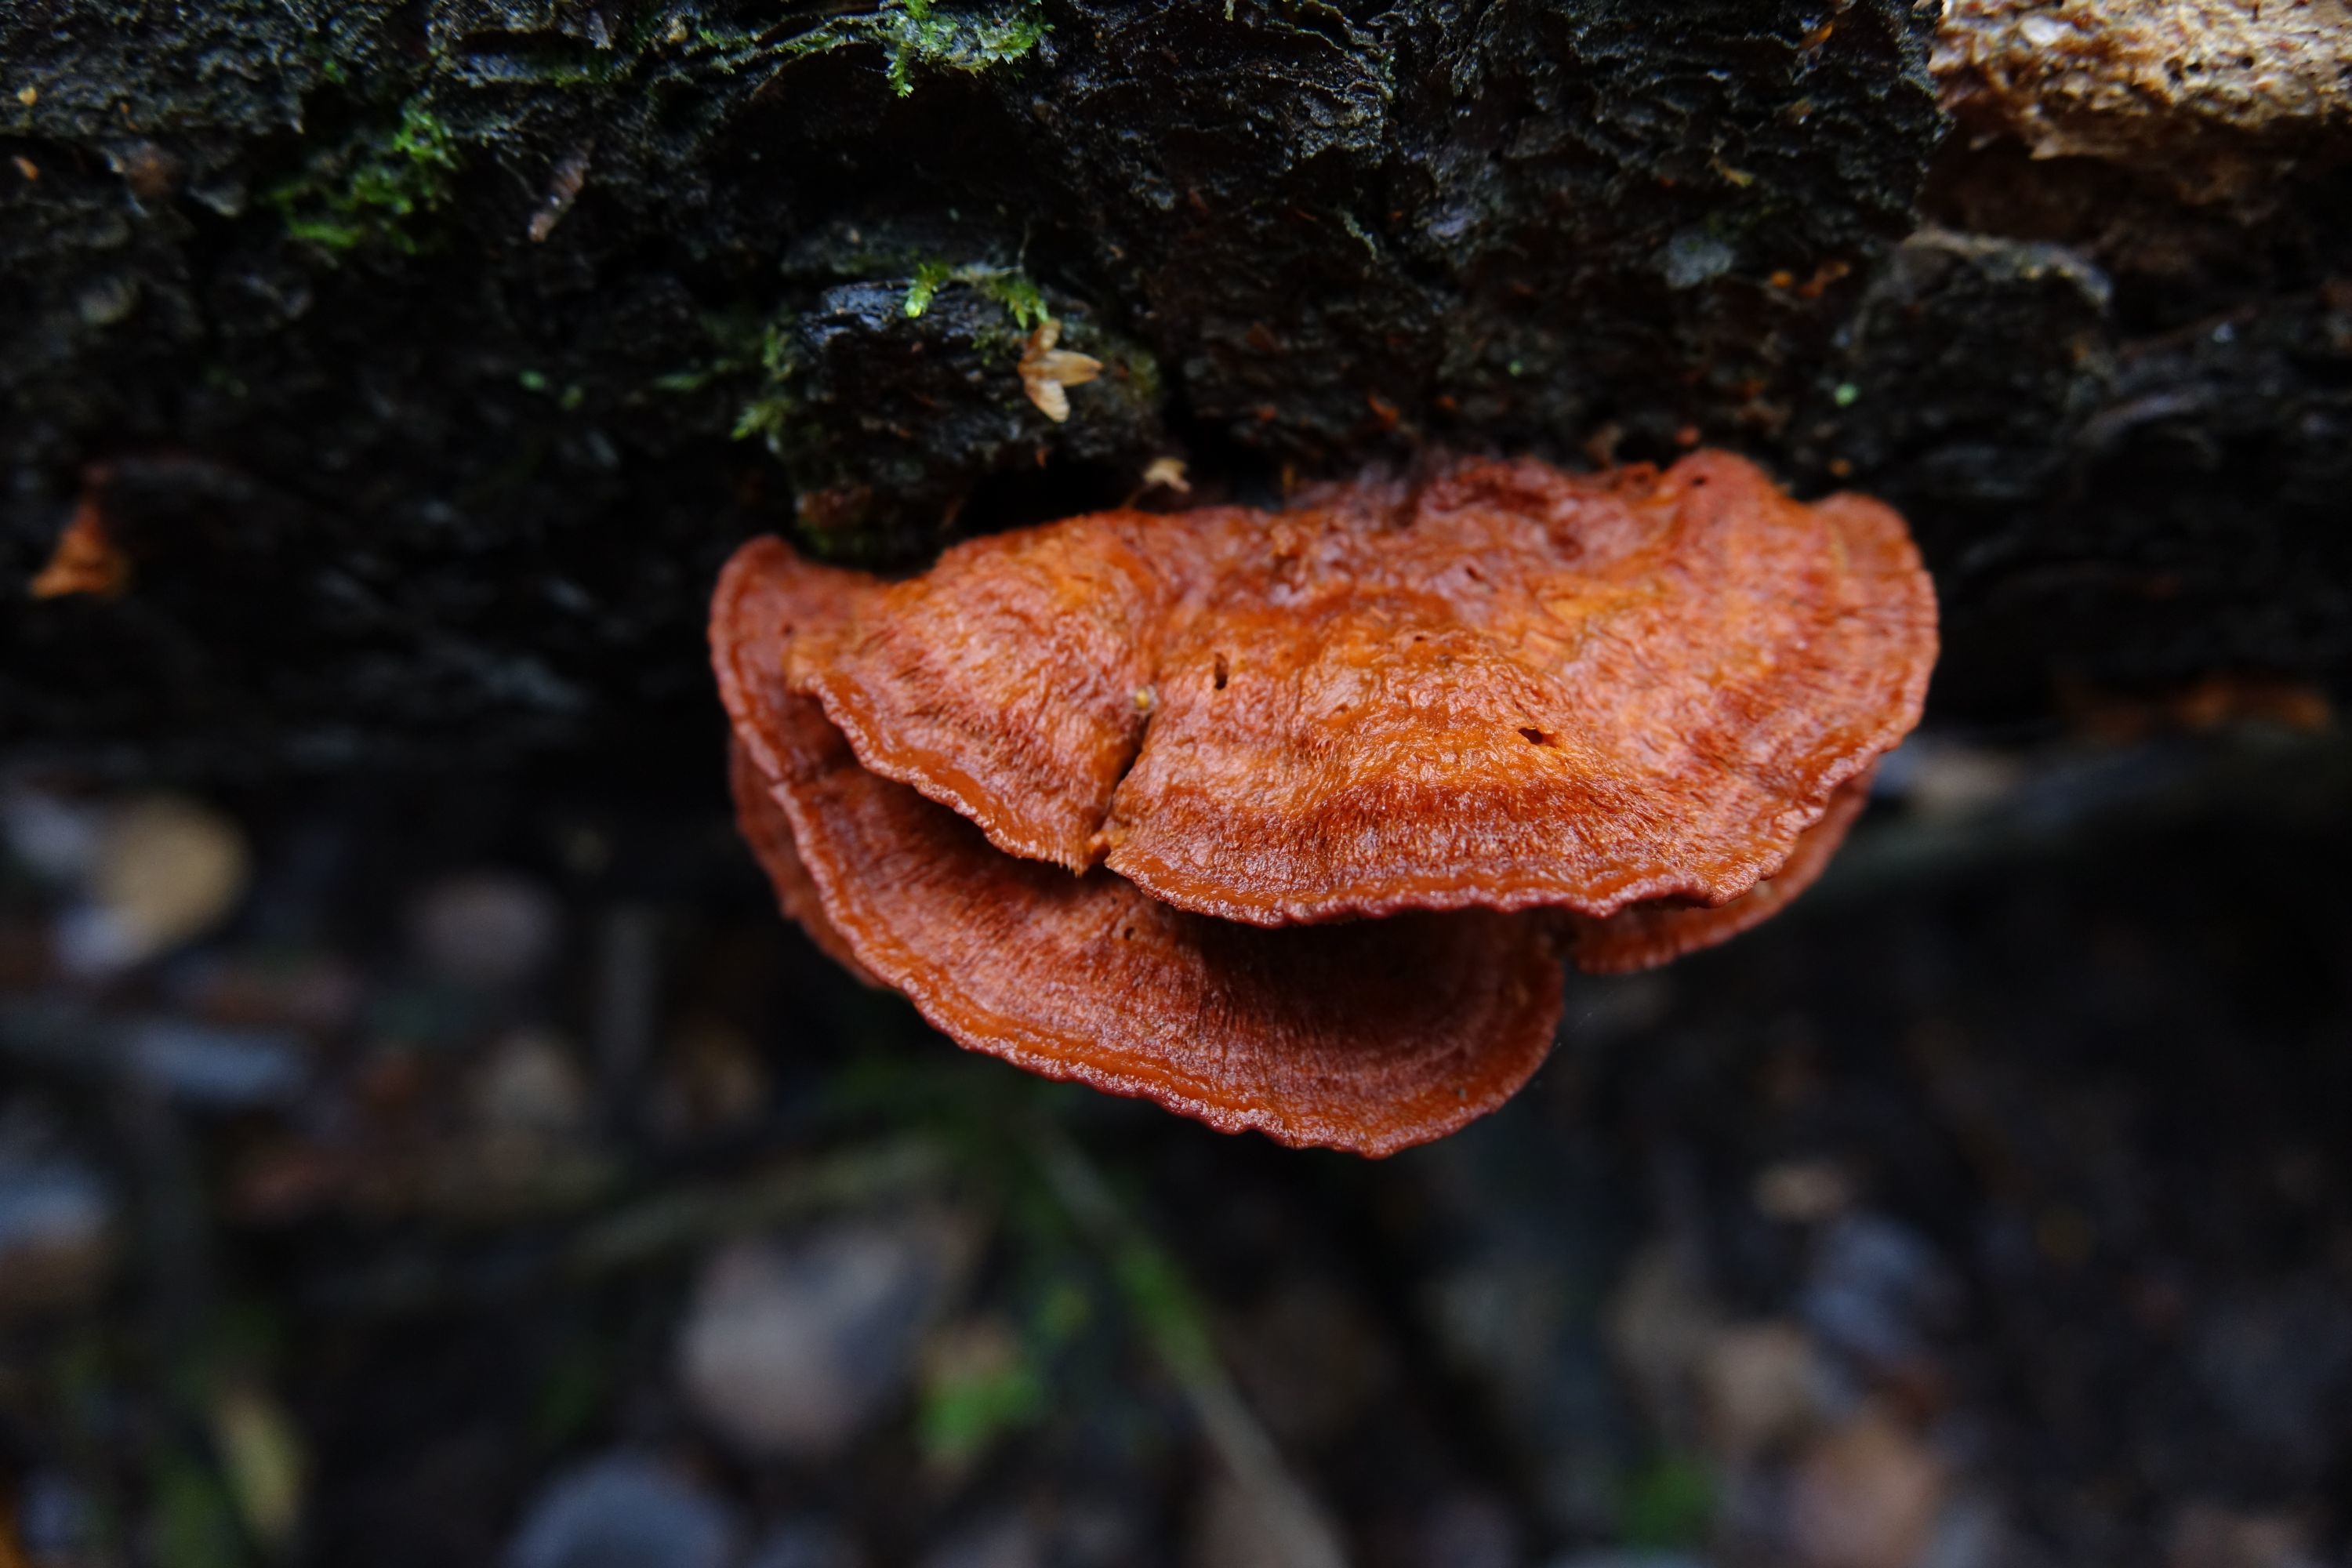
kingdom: Fungi
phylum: Basidiomycota
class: Agaricomycetes
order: Polyporales
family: Pycnoporellaceae
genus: Pycnoporellus
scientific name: Pycnoporellus fulgens
